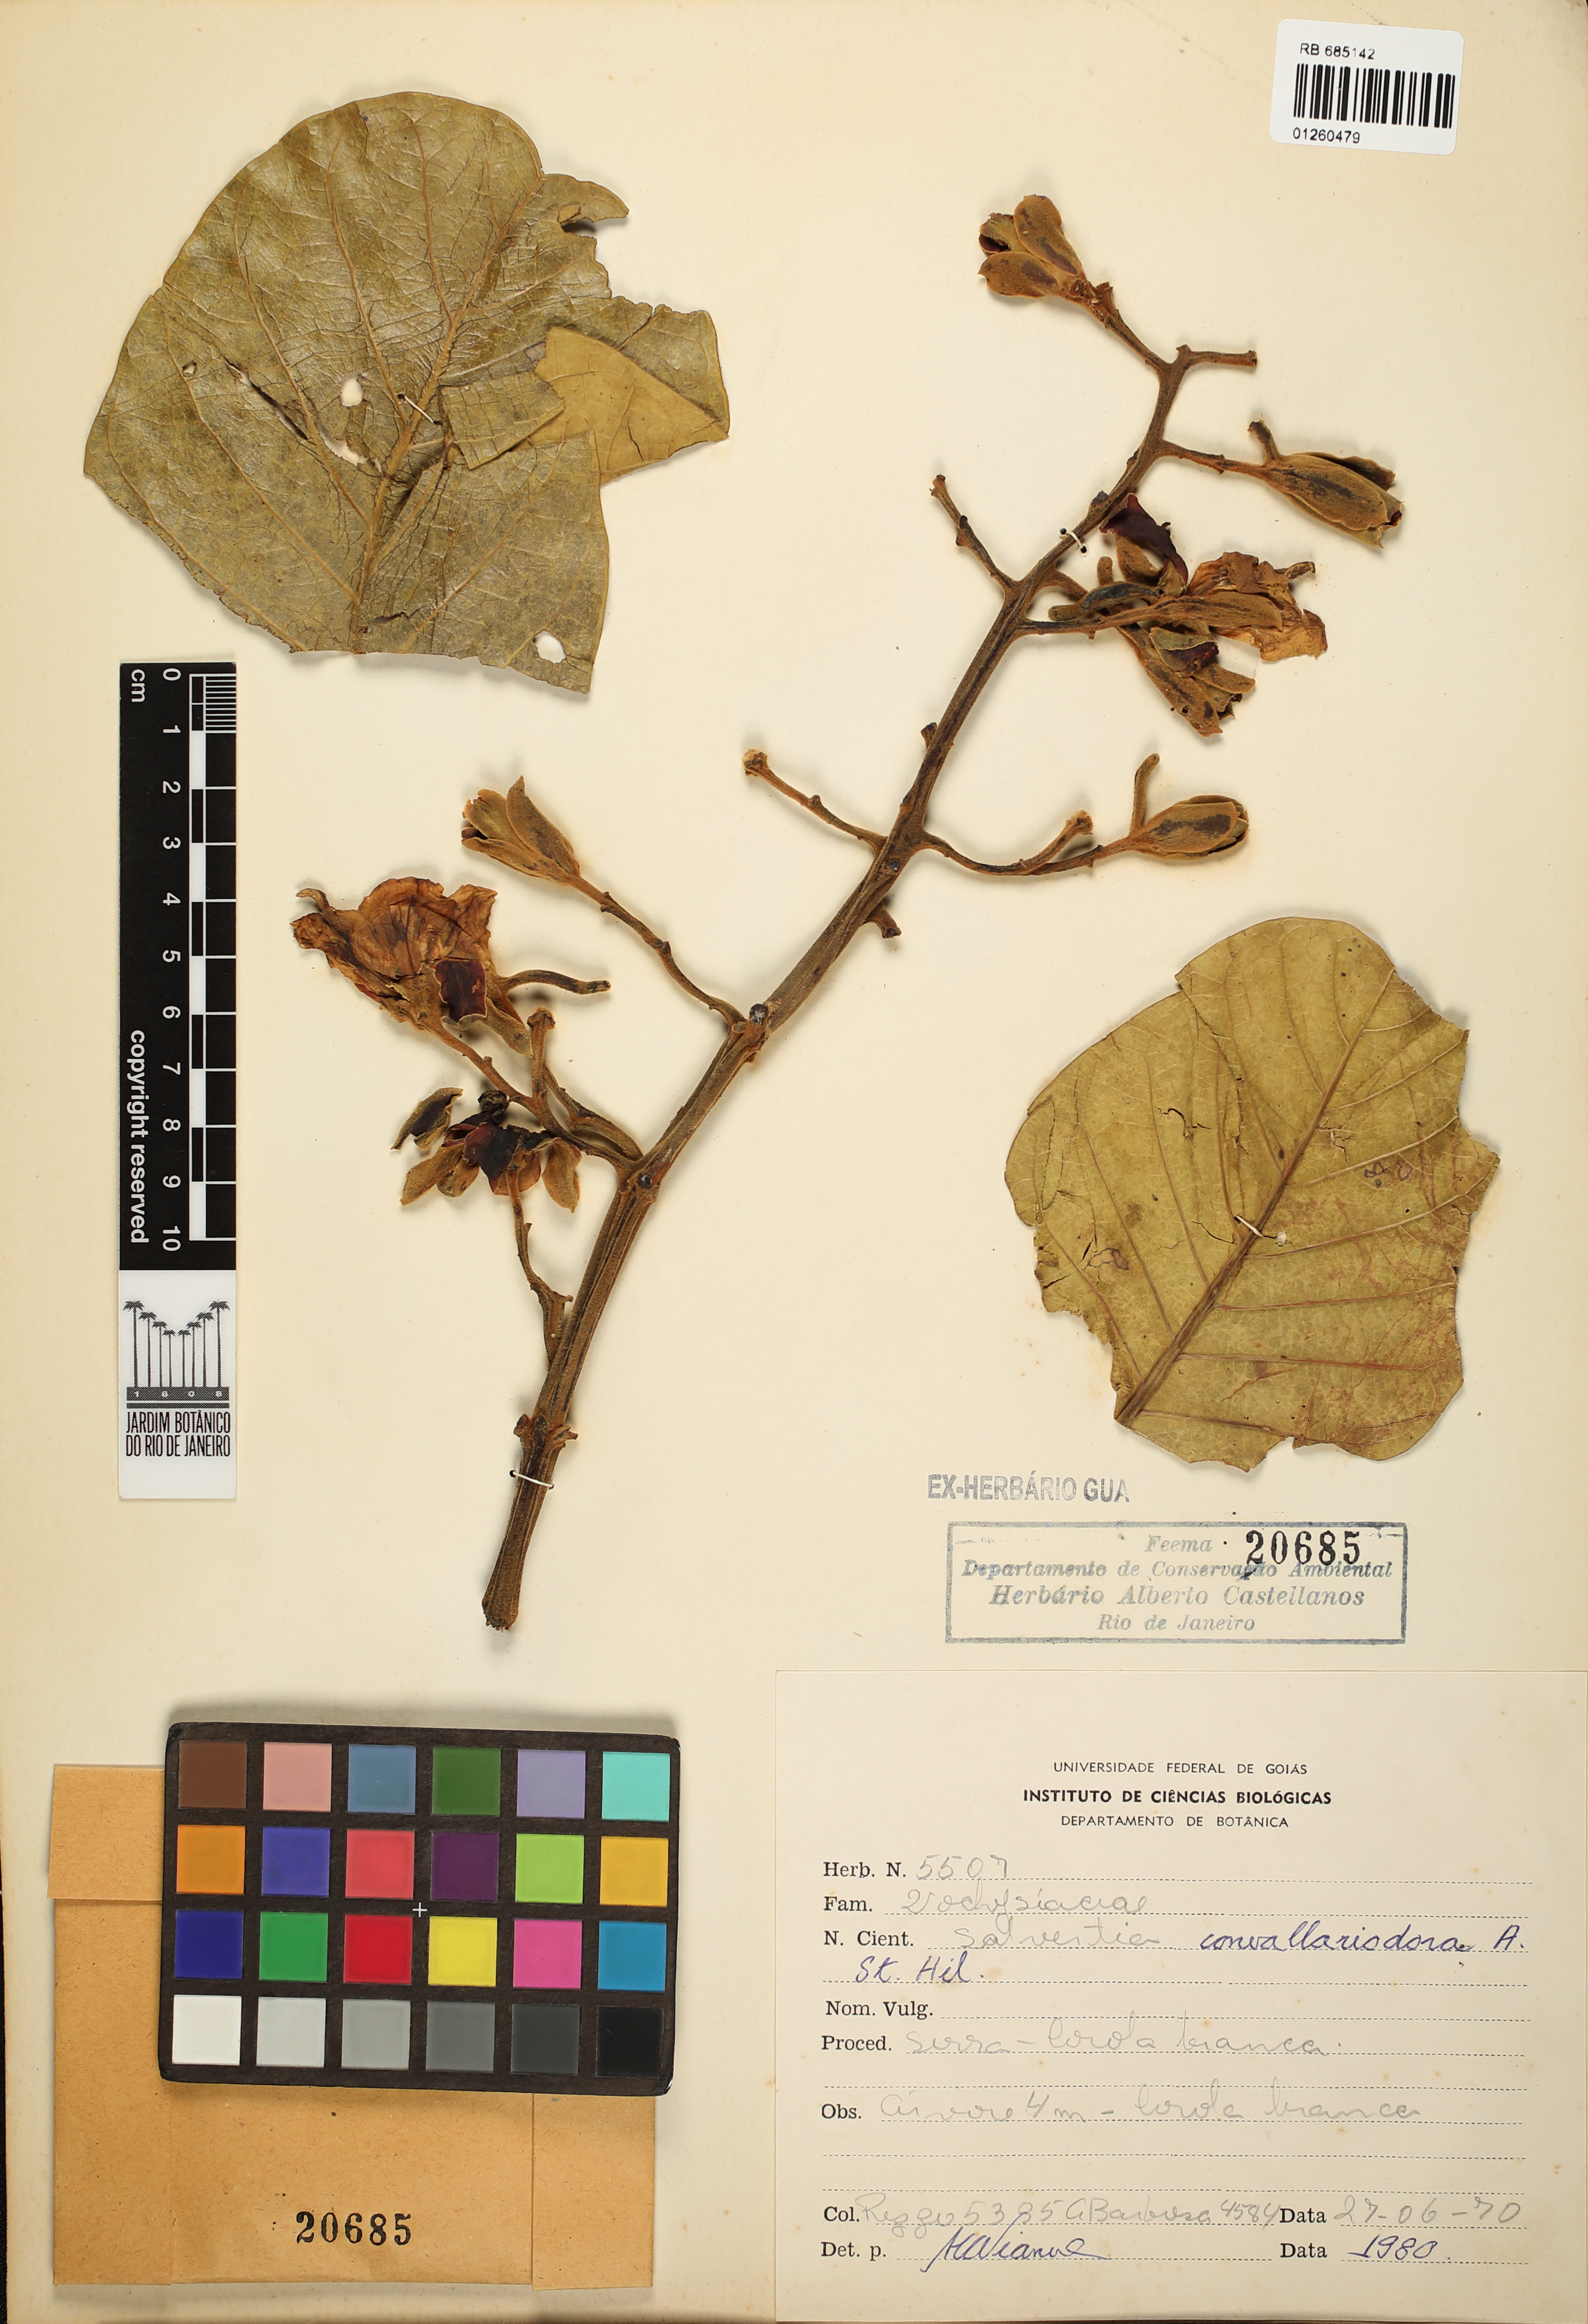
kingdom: Plantae
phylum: Tracheophyta
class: Magnoliopsida
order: Myrtales
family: Vochysiaceae
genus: Salvertia
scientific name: Salvertia convallariodora
